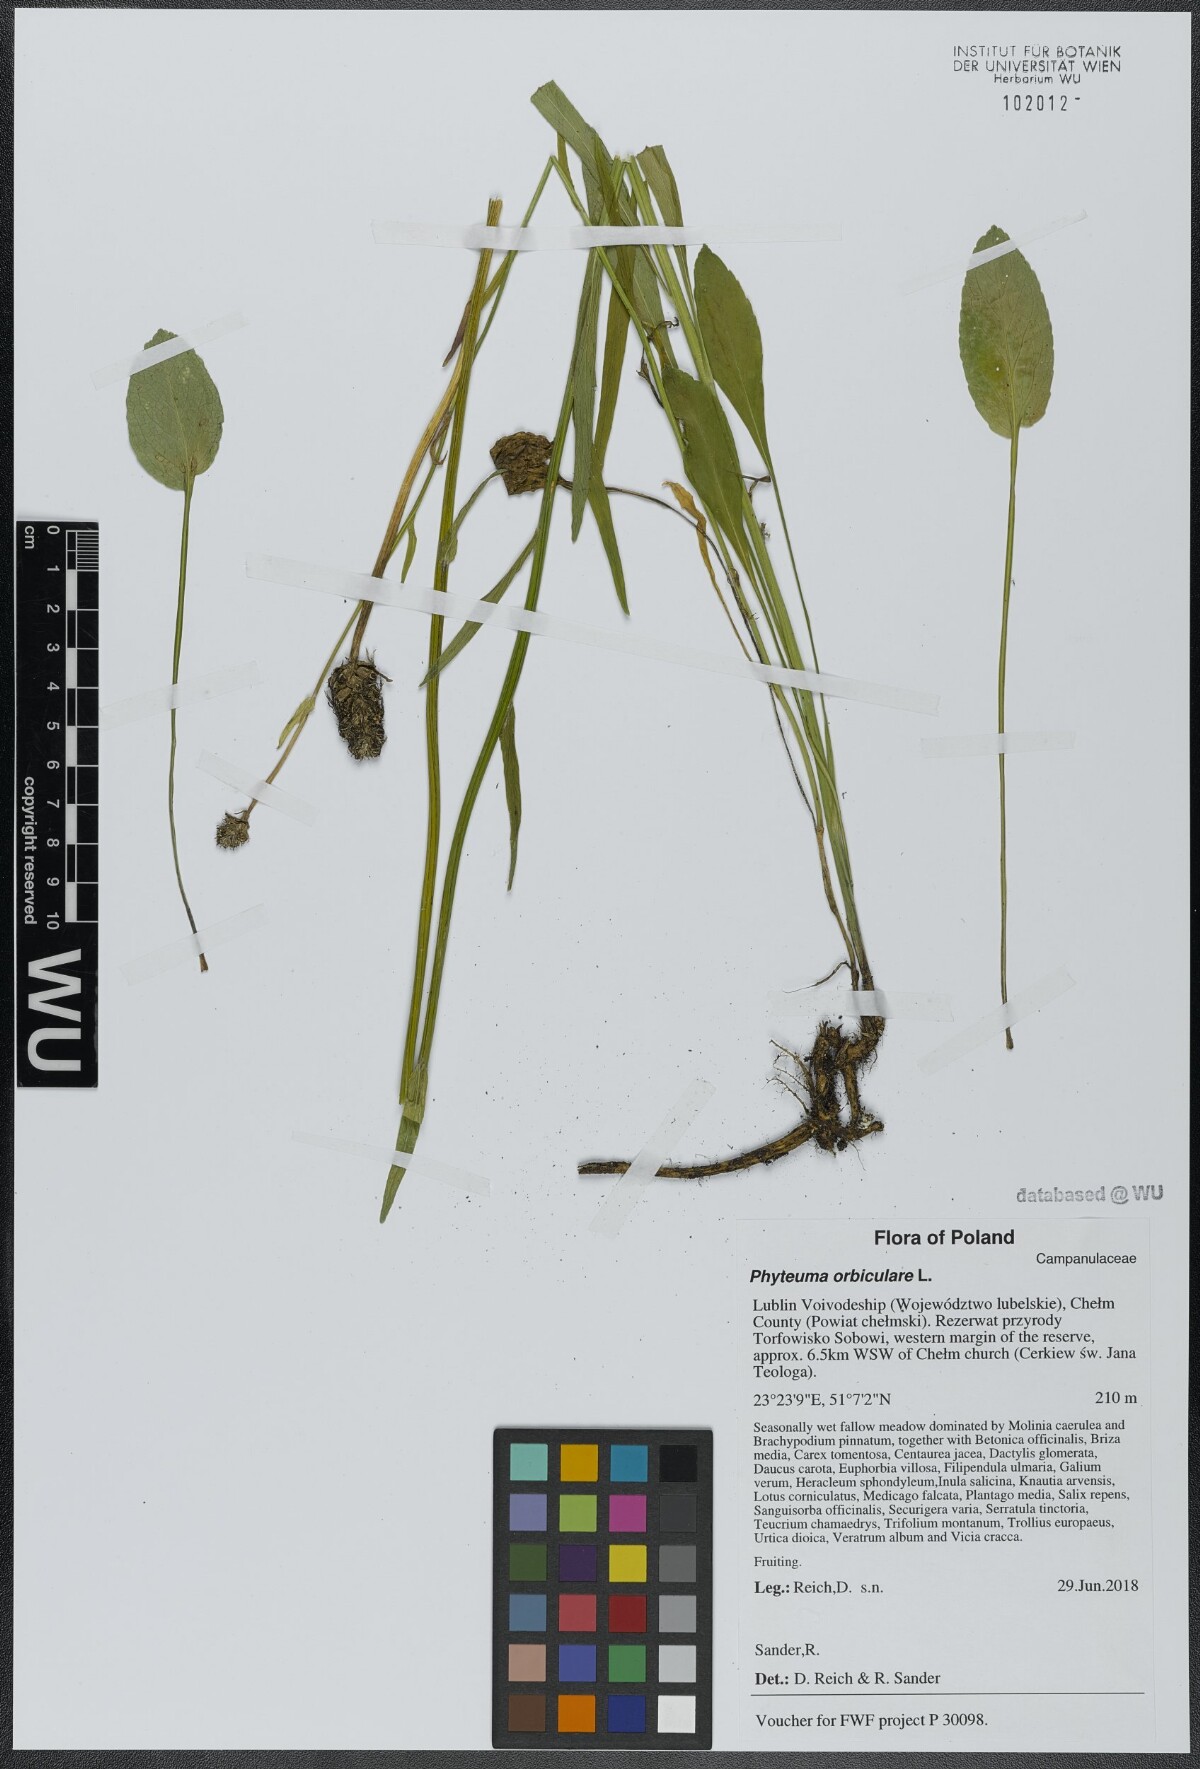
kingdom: Plantae
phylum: Tracheophyta
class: Magnoliopsida
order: Asterales
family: Campanulaceae
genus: Phyteuma
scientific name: Phyteuma orbiculare
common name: Round-headed rampion
